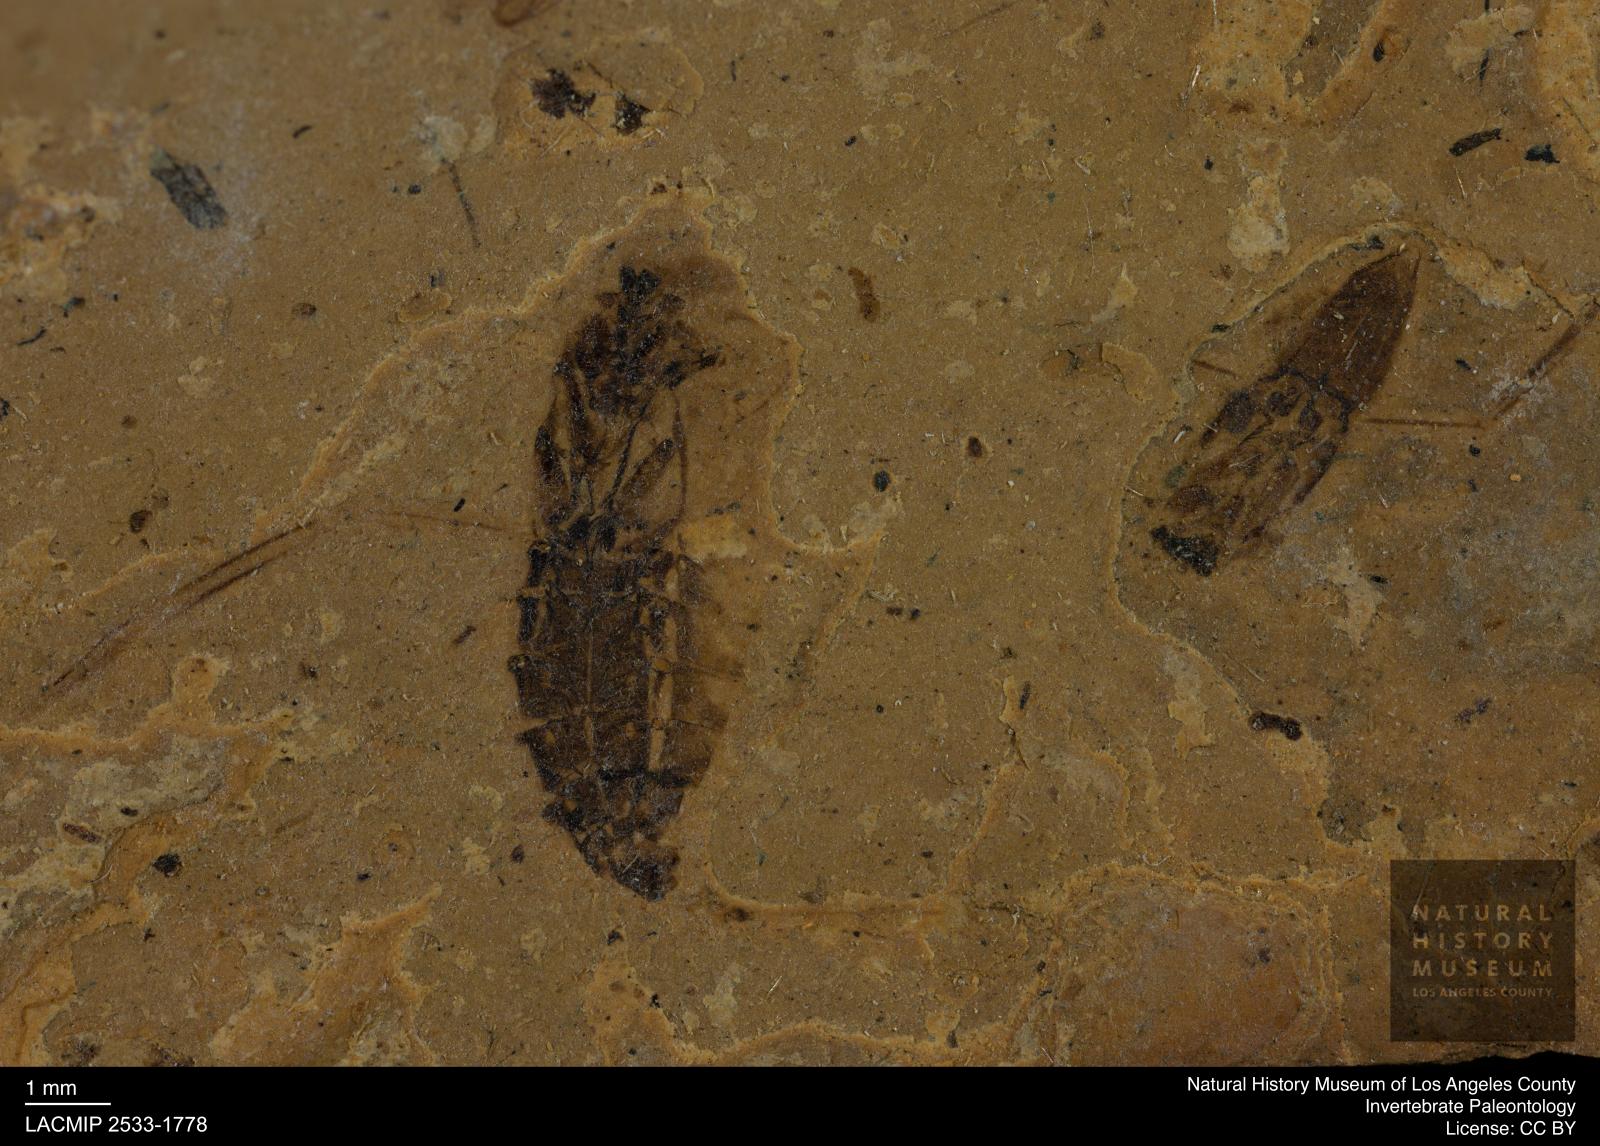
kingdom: Animalia
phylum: Arthropoda
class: Insecta
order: Hemiptera
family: Notonectidae
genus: Notonecta
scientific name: Notonecta
